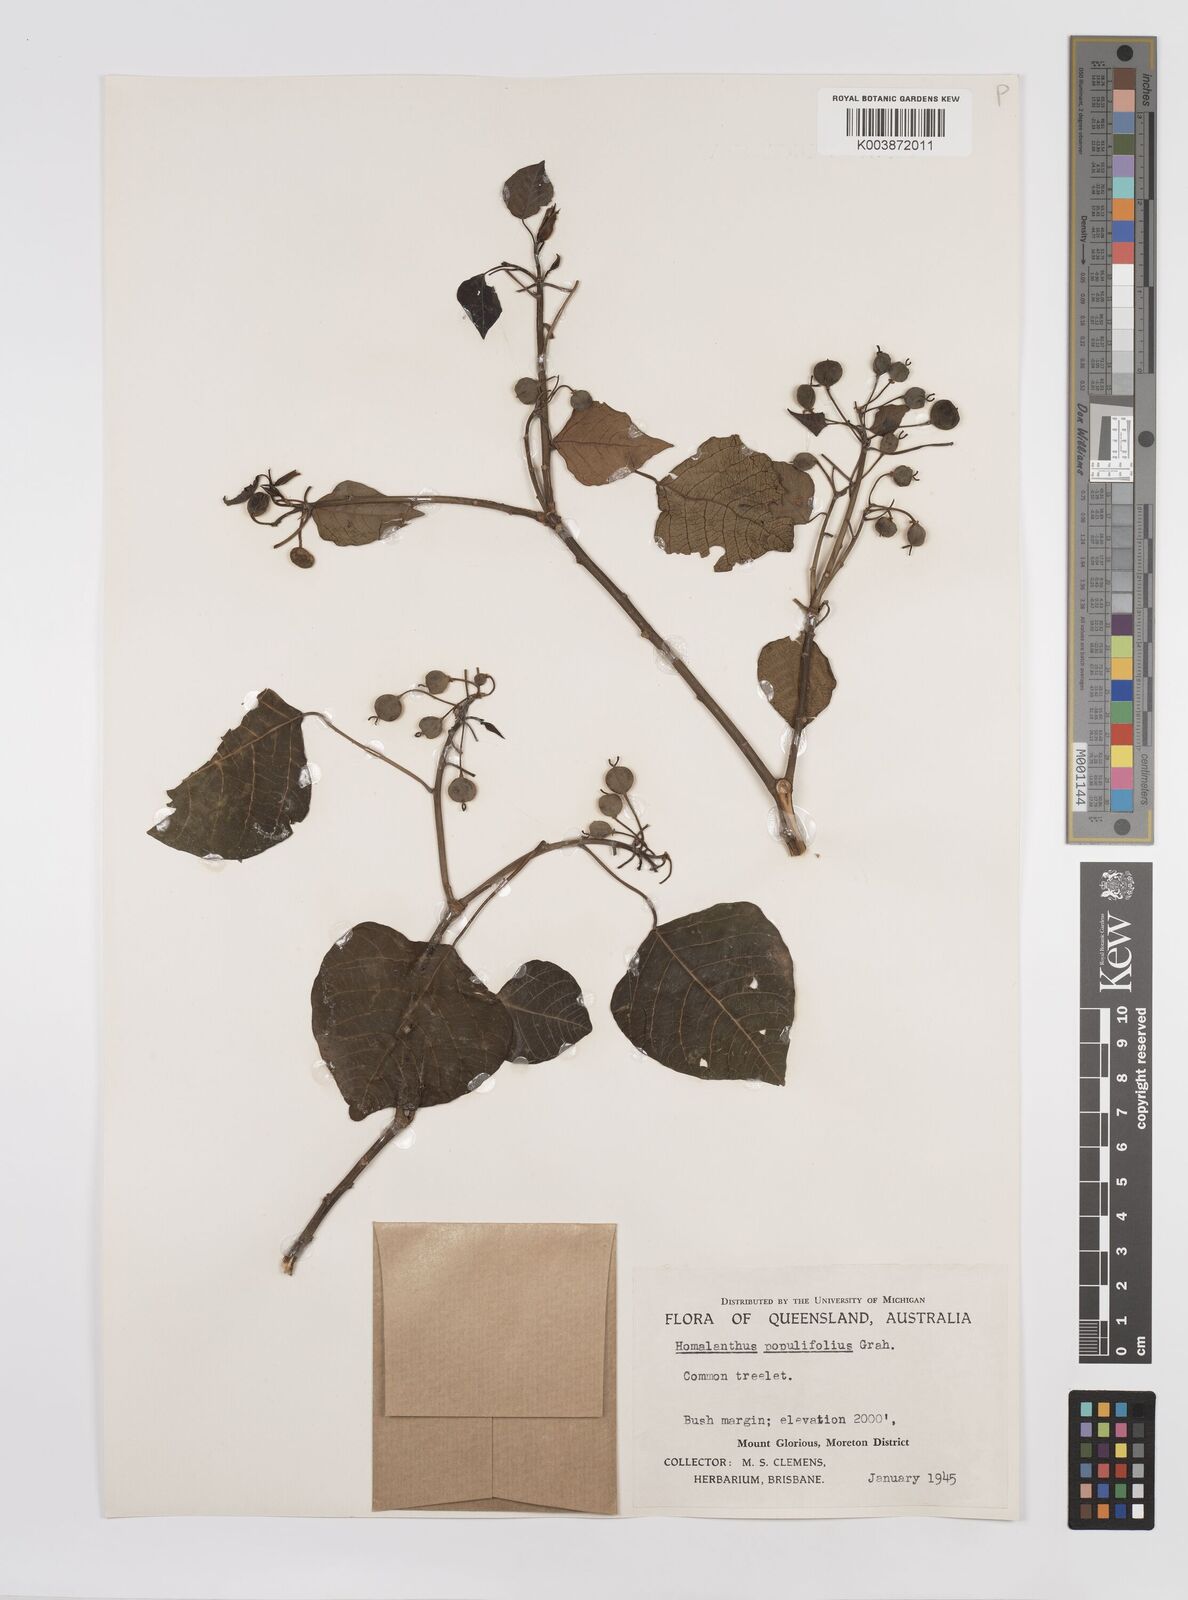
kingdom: Plantae
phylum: Tracheophyta
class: Magnoliopsida
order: Malpighiales
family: Euphorbiaceae
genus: Homalanthus
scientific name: Homalanthus populifolius
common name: Queensland poplar
